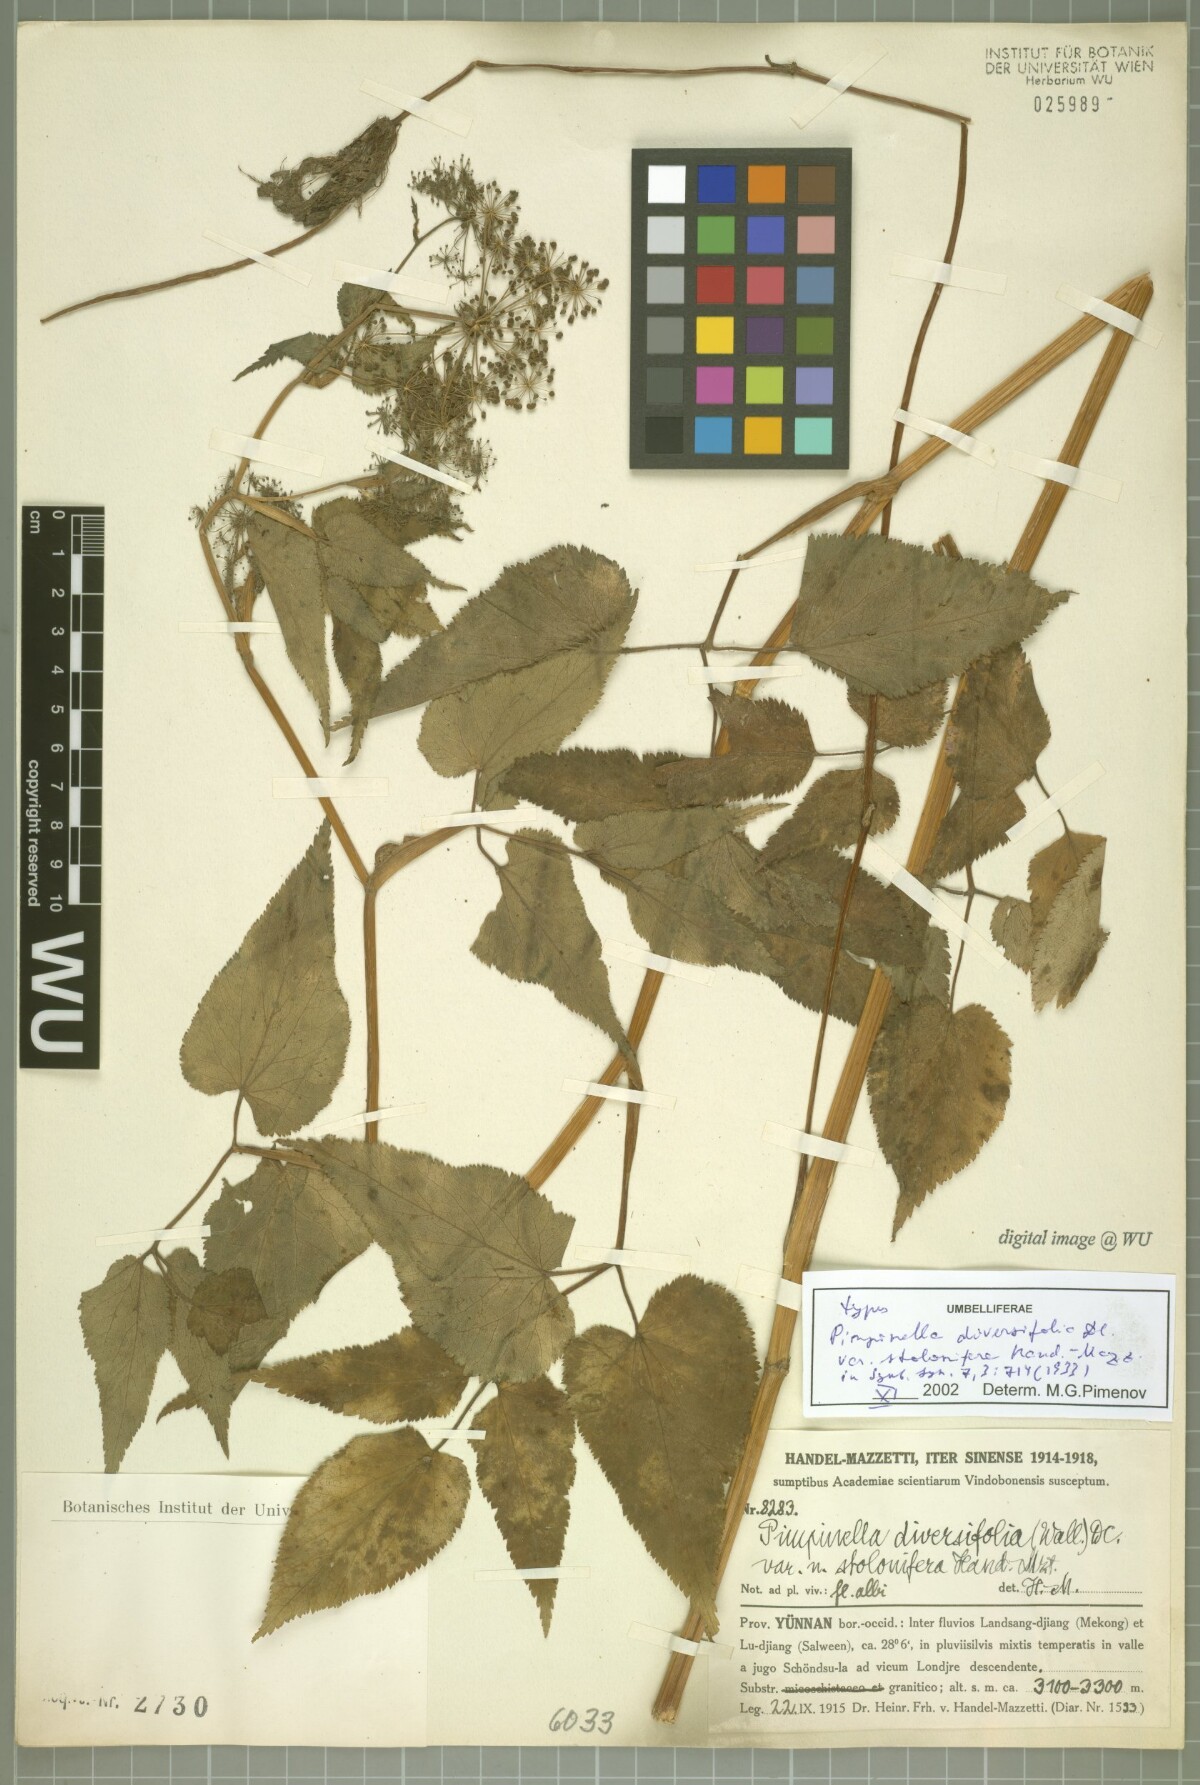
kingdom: Plantae
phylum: Tracheophyta
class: Magnoliopsida
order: Apiales
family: Apiaceae
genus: Pimpinella
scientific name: Pimpinella diversifolia
